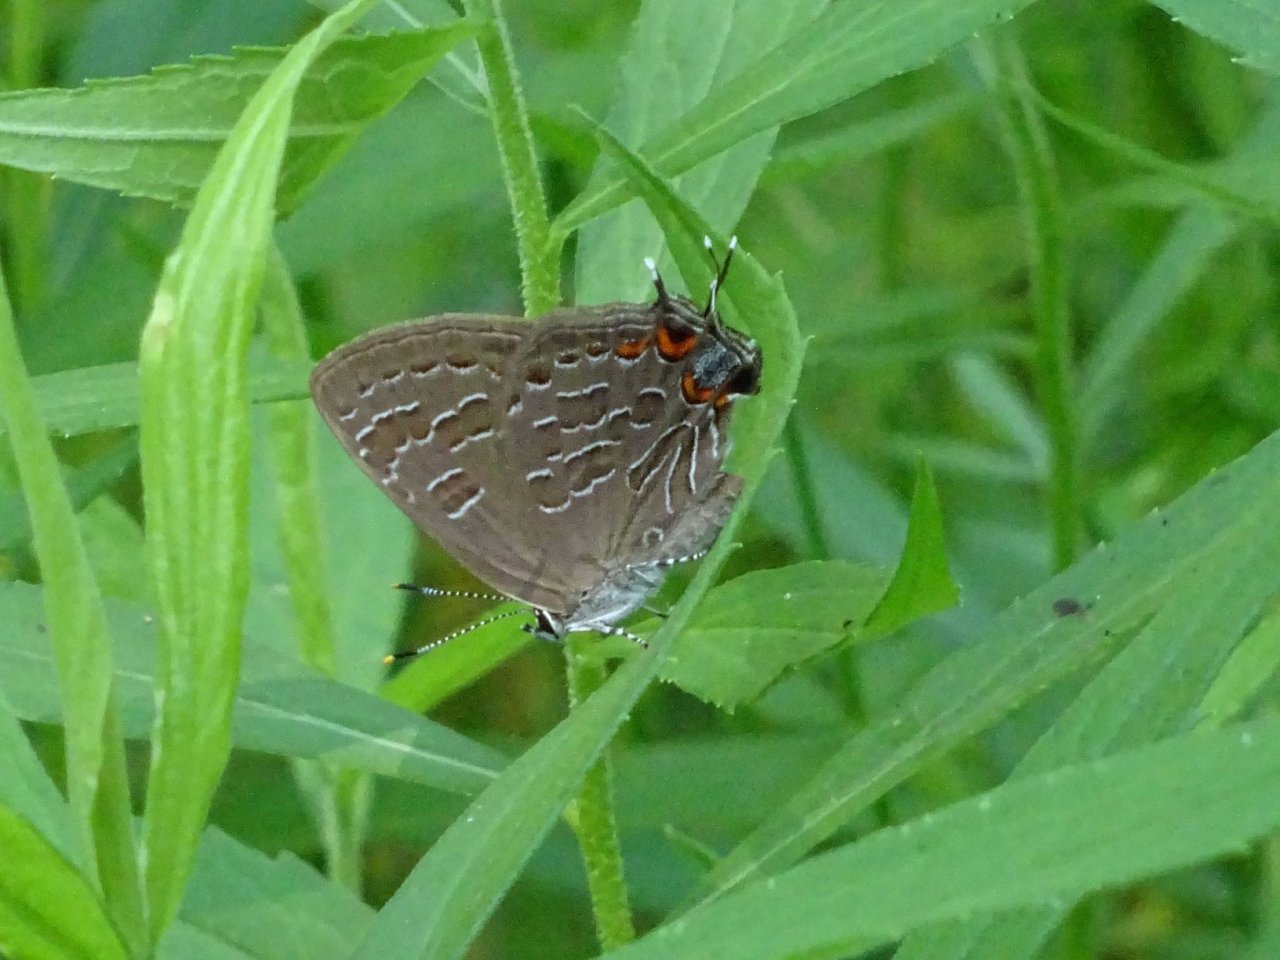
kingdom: Animalia
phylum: Arthropoda
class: Insecta
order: Lepidoptera
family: Lycaenidae
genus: Satyrium
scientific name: Satyrium liparops
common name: Striped Hairstreak
